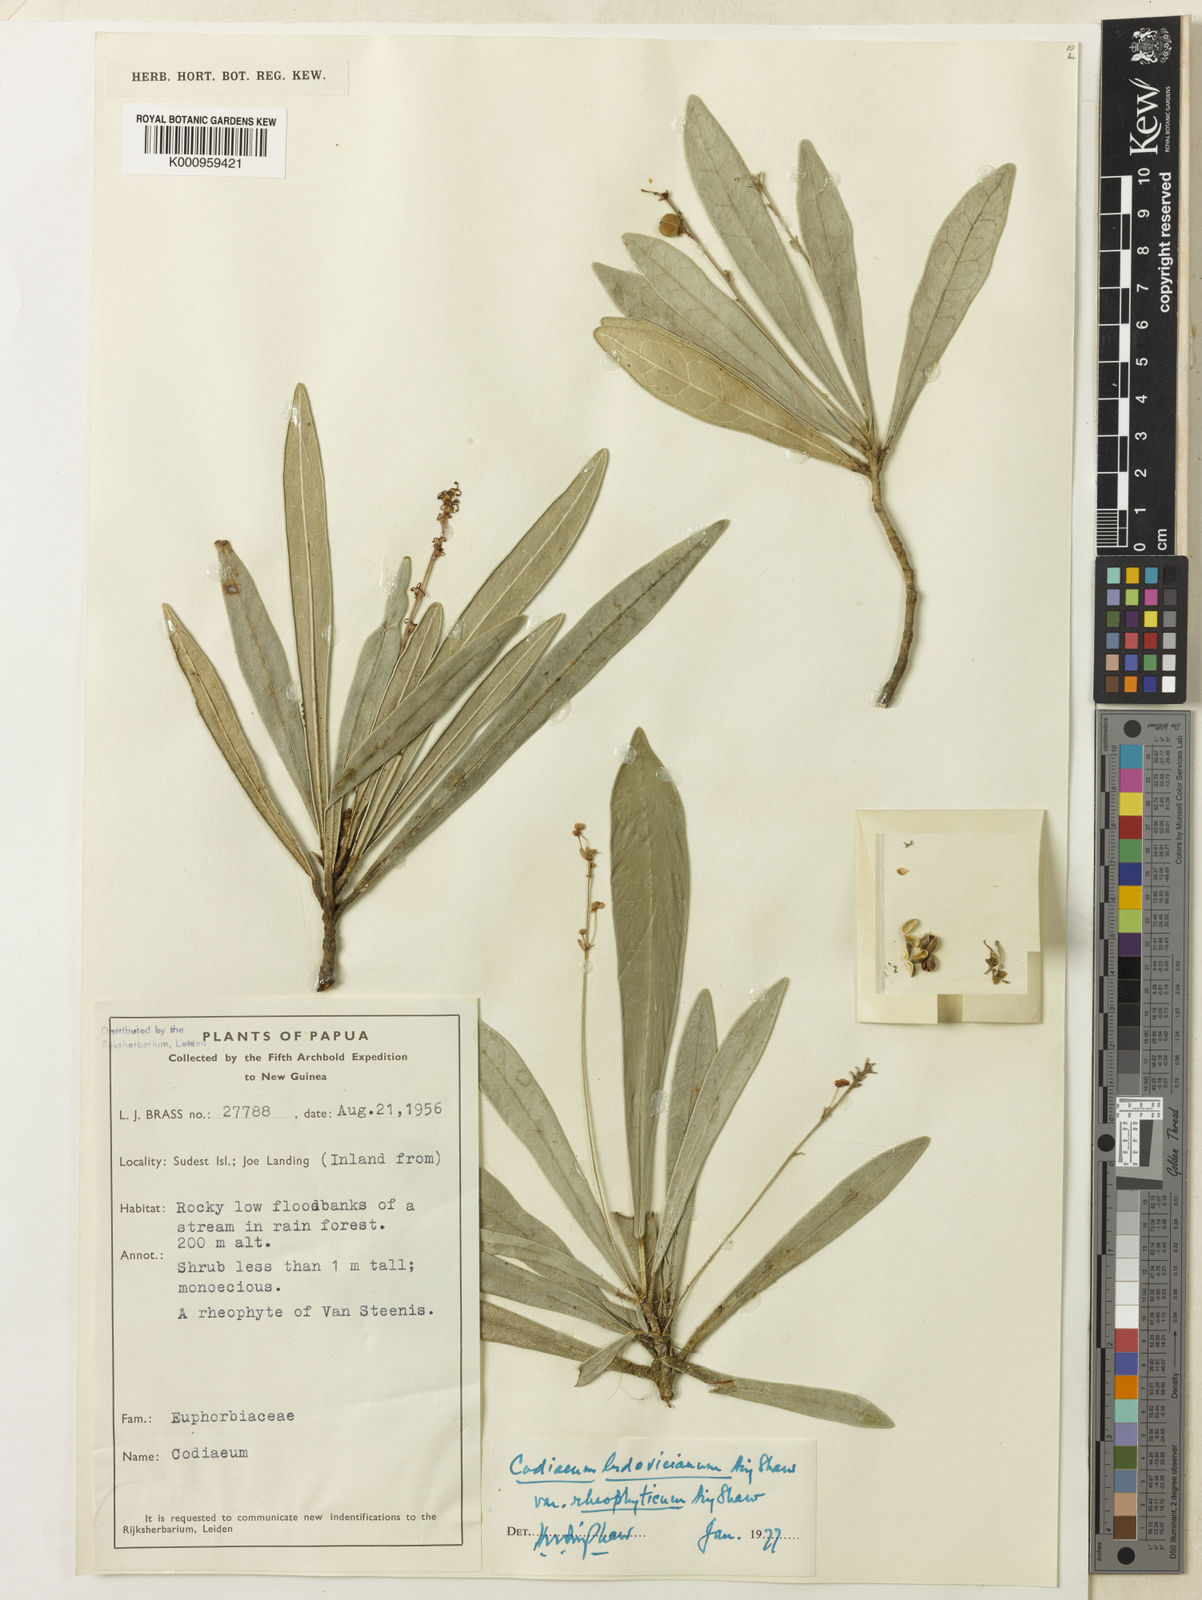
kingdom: Plantae
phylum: Tracheophyta
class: Magnoliopsida
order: Malpighiales
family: Euphorbiaceae
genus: Codiaeum
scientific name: Codiaeum ludovicianum
